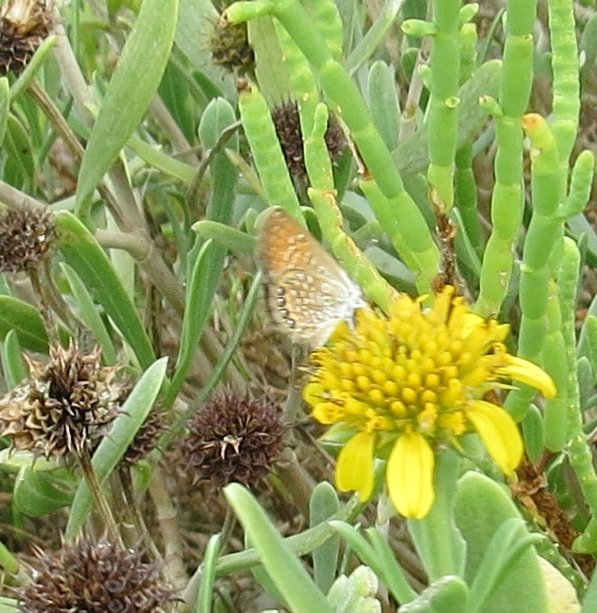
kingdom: Animalia
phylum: Arthropoda
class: Insecta
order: Lepidoptera
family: Lycaenidae
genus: Brephidium
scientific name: Brephidium isophthalma
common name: Eastern Pygmy-Blue
